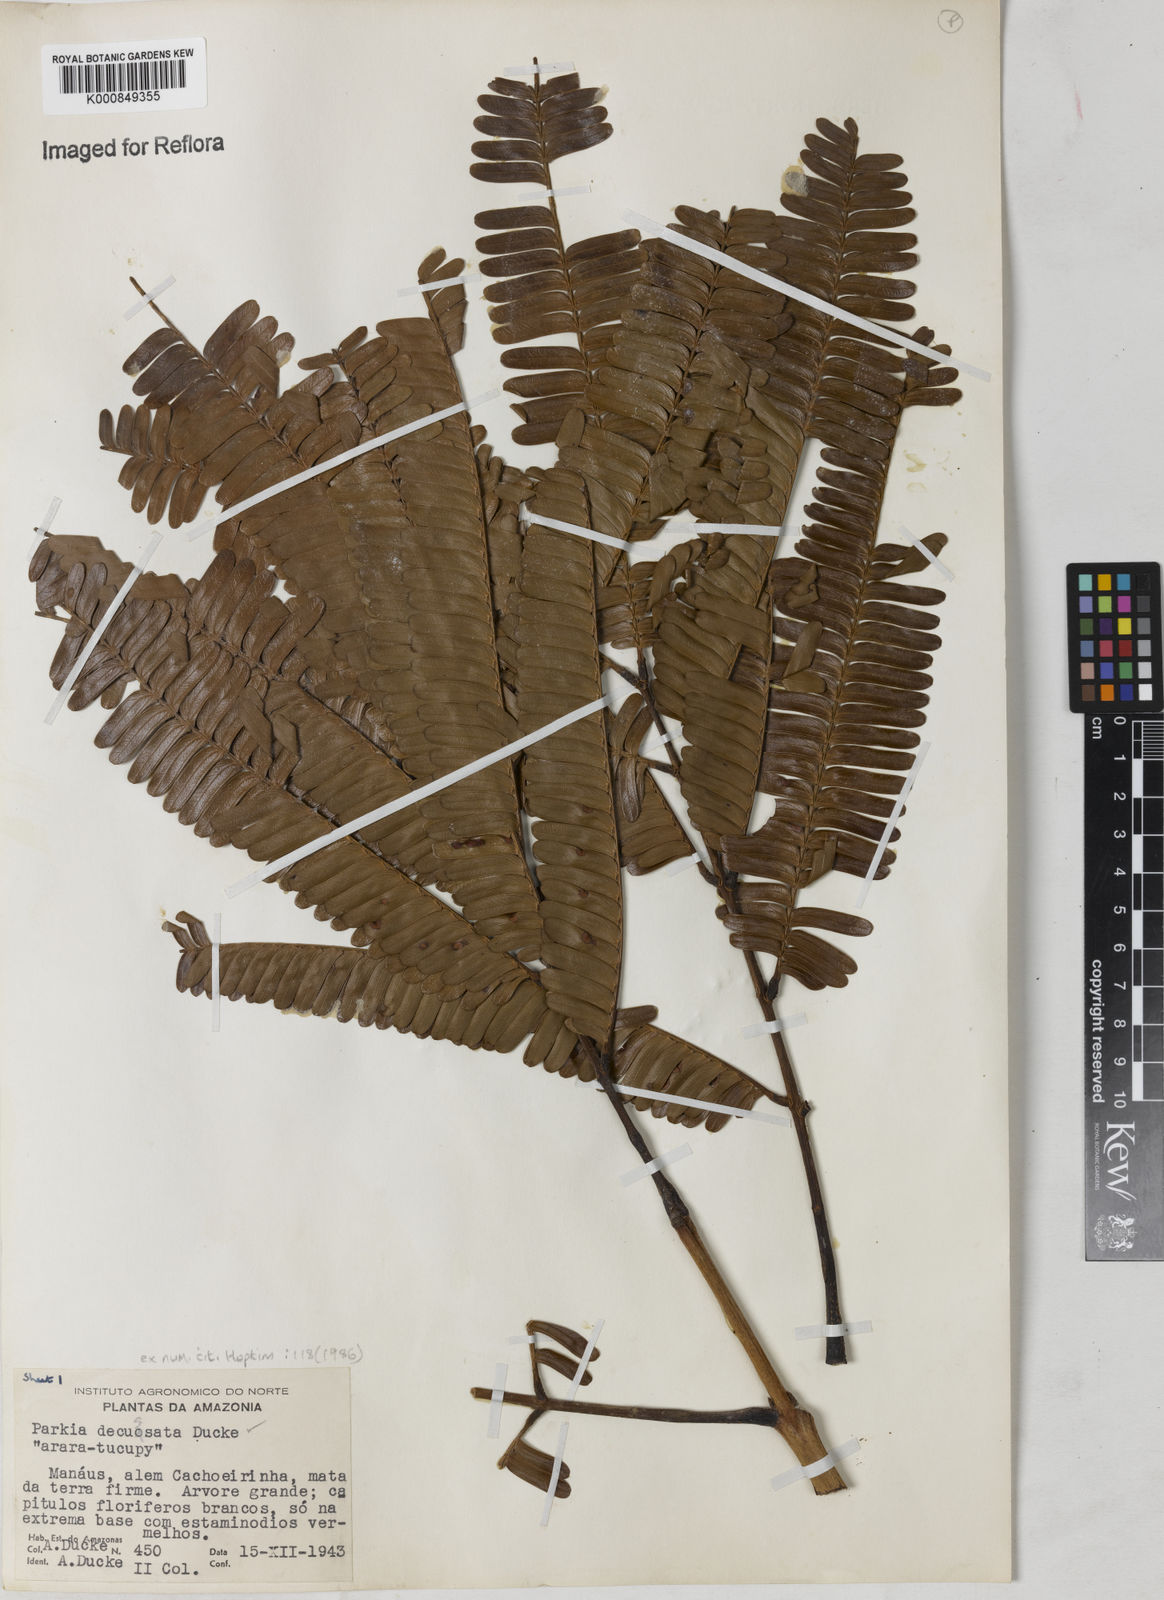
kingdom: Plantae
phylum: Tracheophyta
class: Magnoliopsida
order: Fabales
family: Fabaceae
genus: Parkia
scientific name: Parkia decussata
